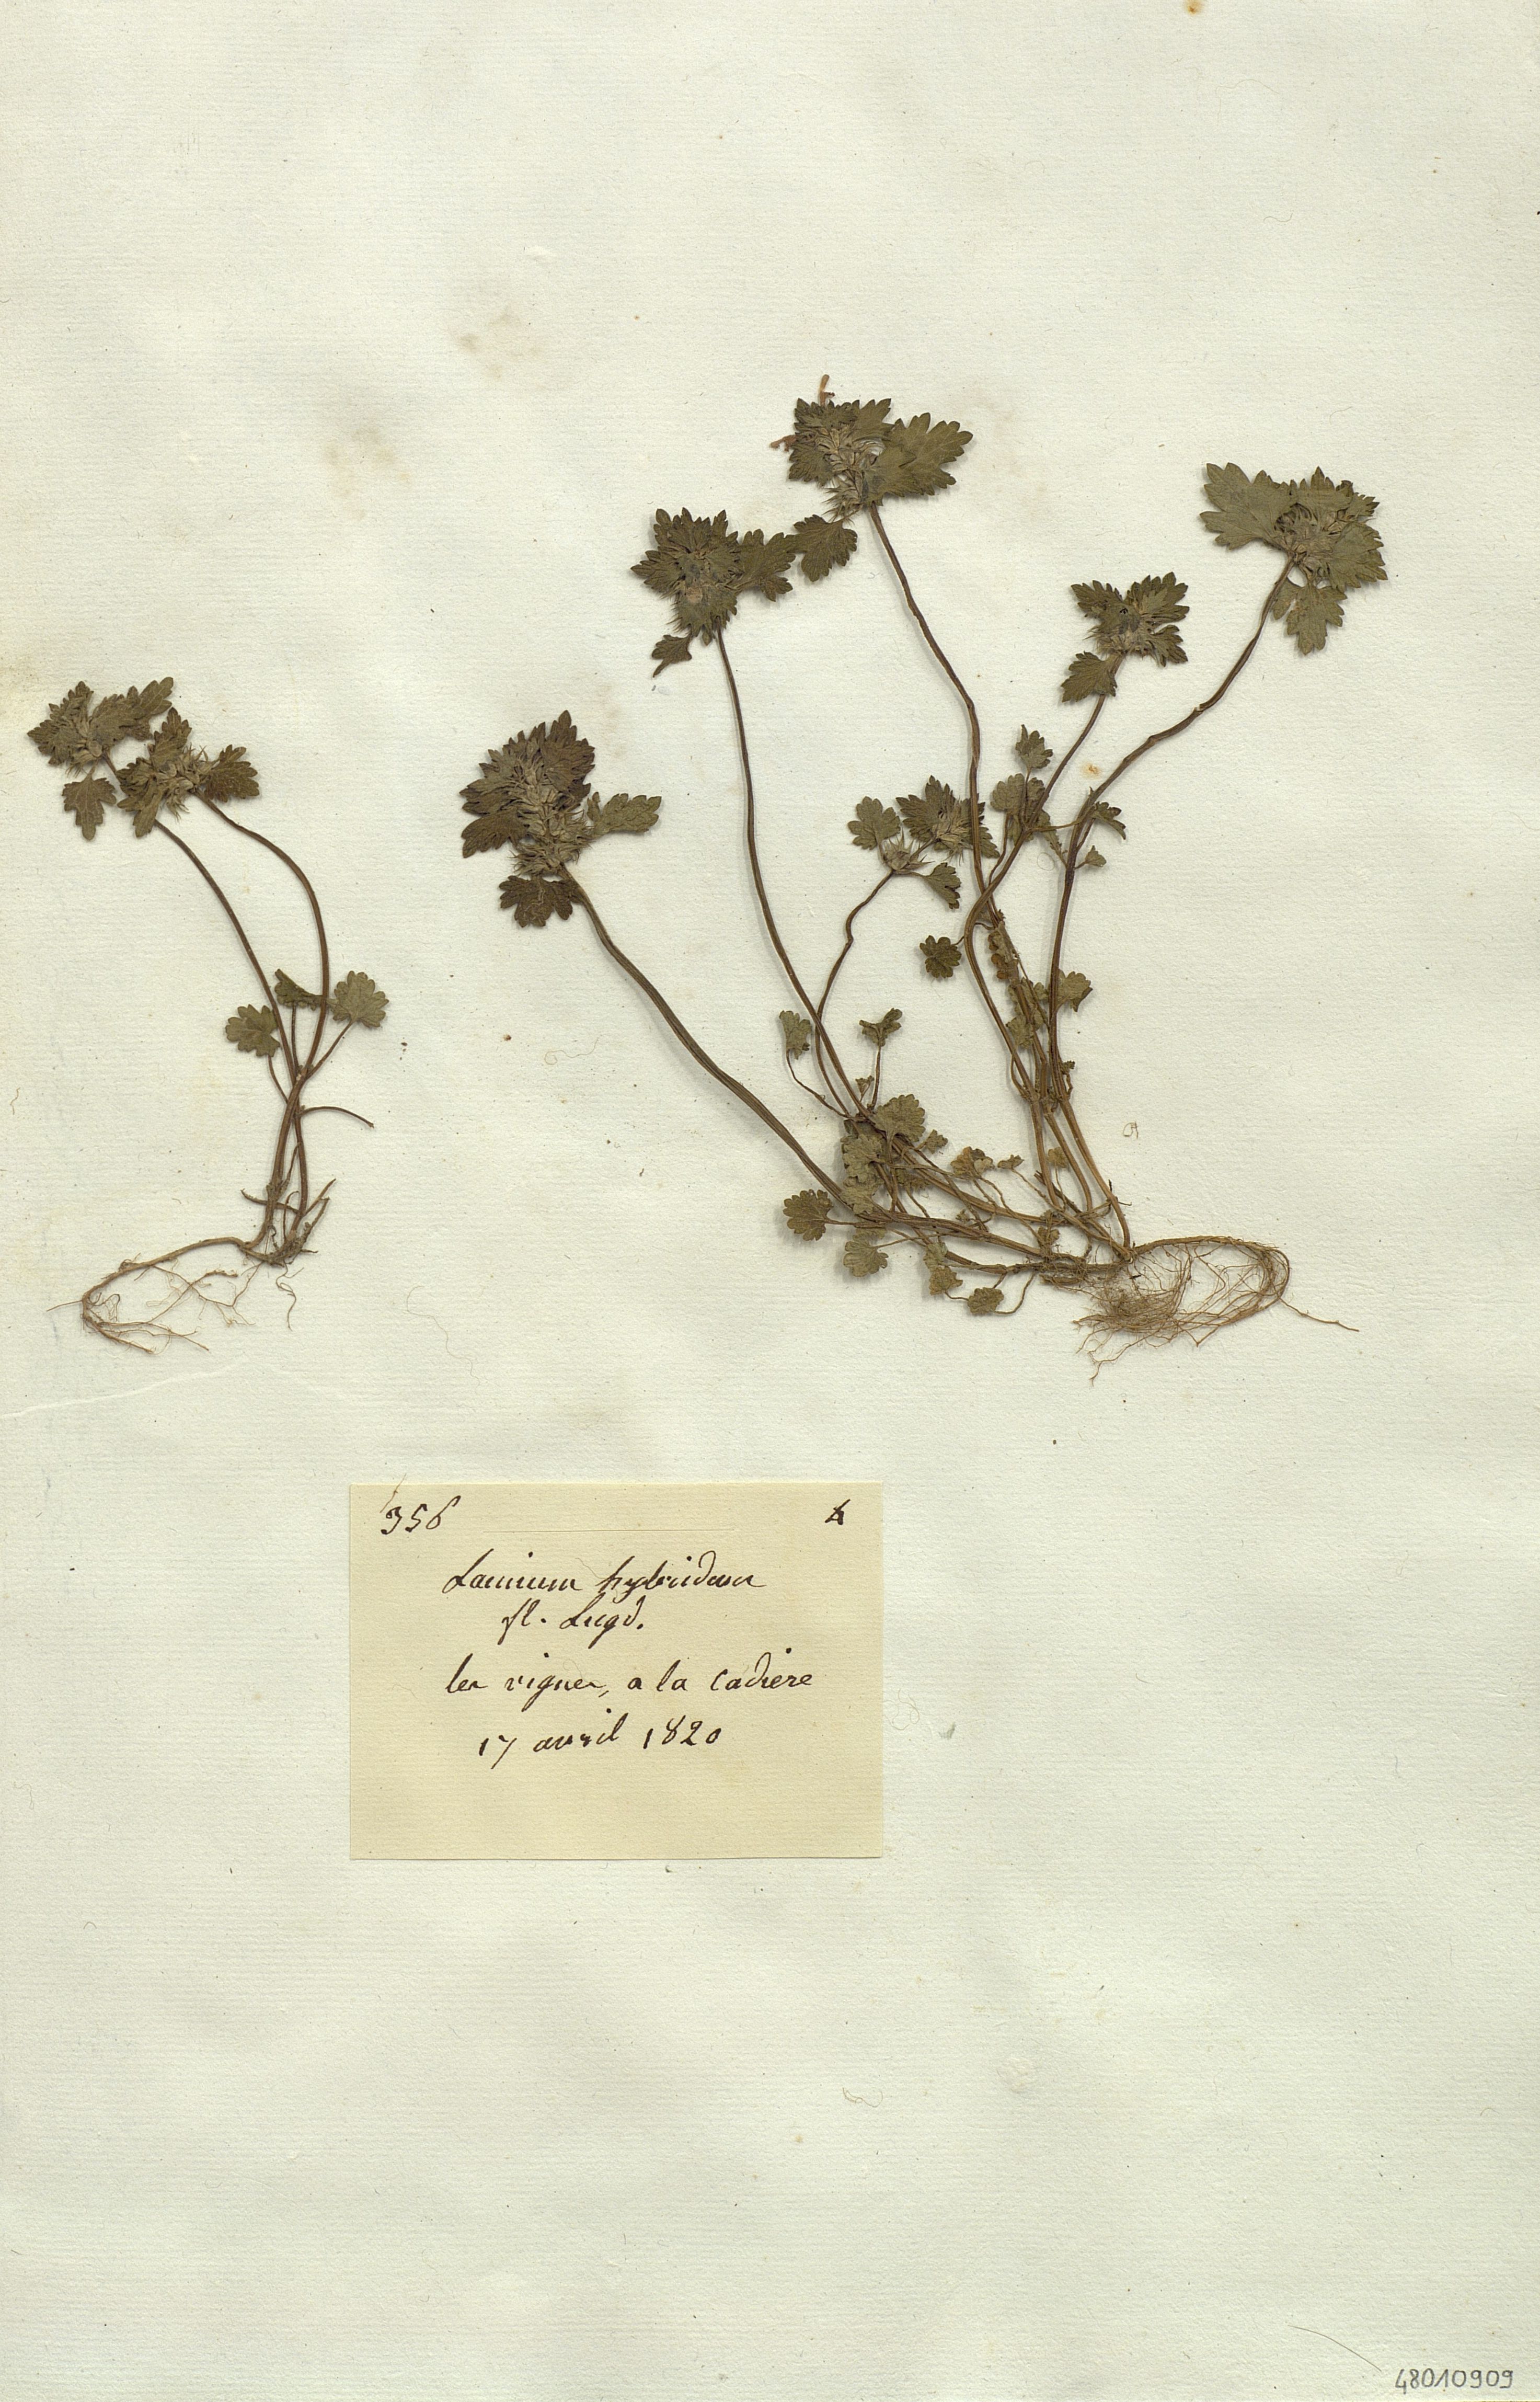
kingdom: Plantae
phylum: Tracheophyta
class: Magnoliopsida
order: Lamiales
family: Lamiaceae
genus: Lamium
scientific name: Lamium hybridum
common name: Cut-leaved dead-nettle
